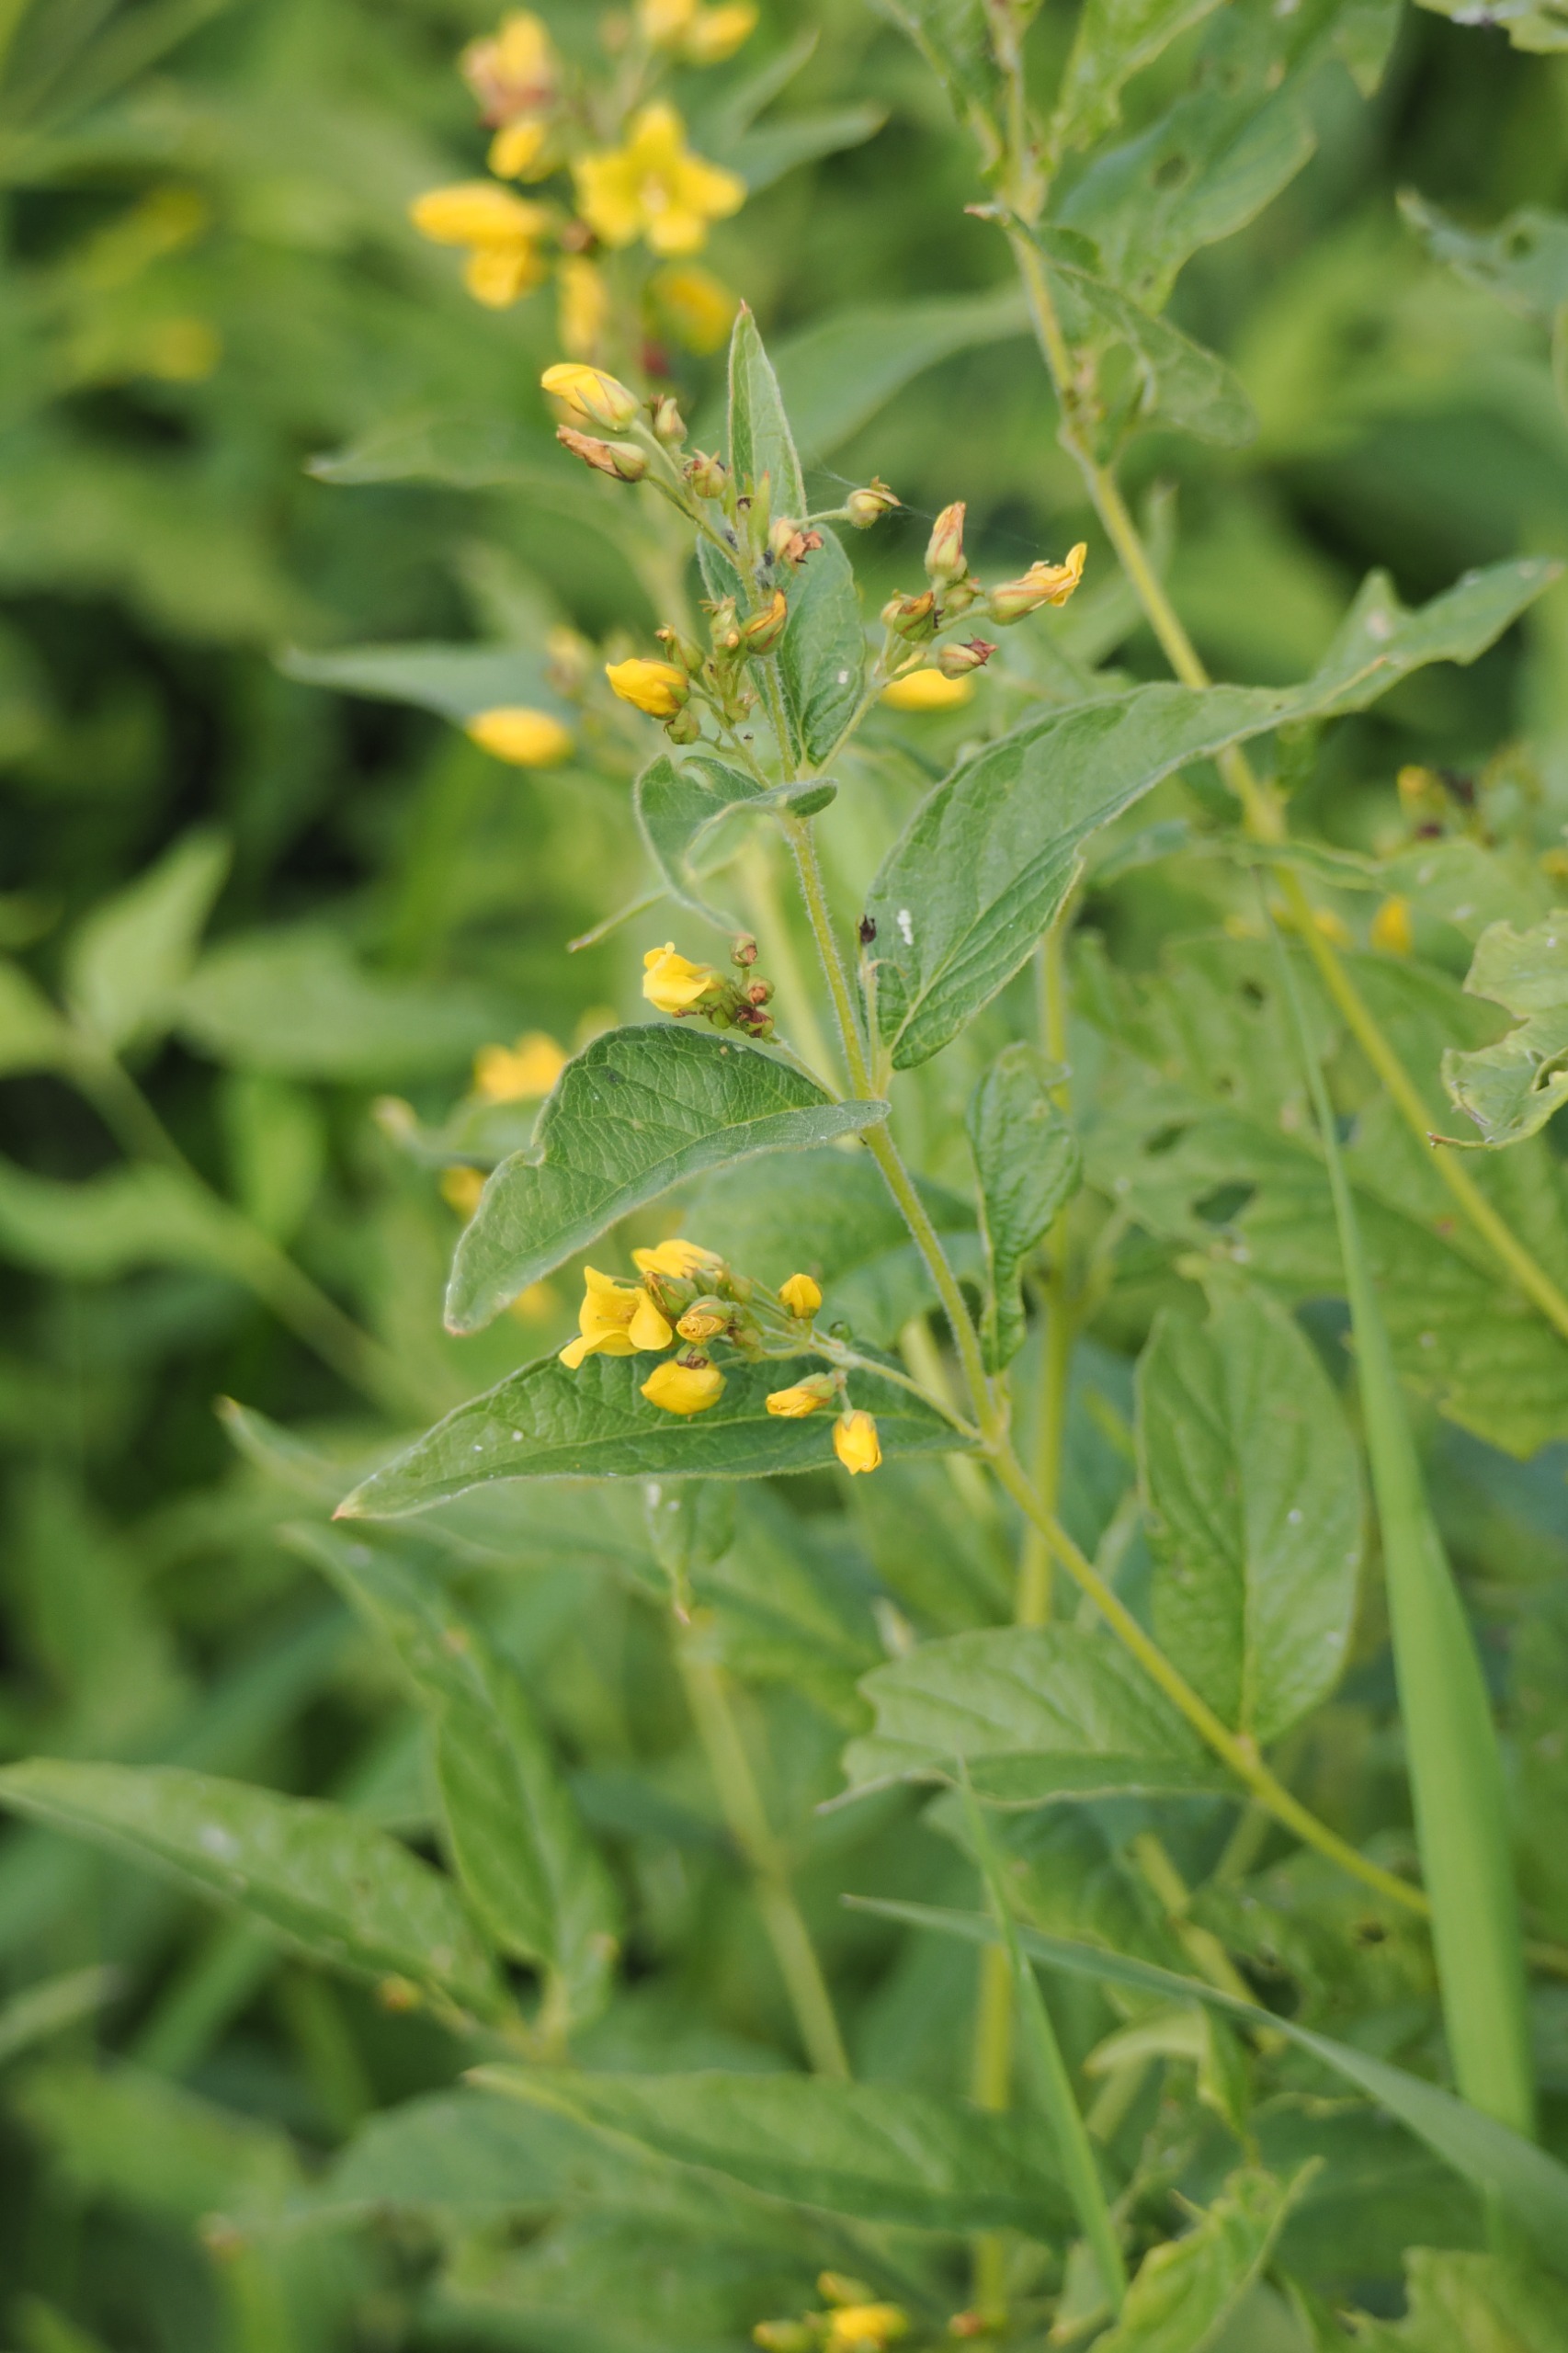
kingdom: Plantae
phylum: Tracheophyta
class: Magnoliopsida
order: Ericales
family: Primulaceae
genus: Lysimachia
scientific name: Lysimachia vulgaris
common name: Almindelig fredløs
